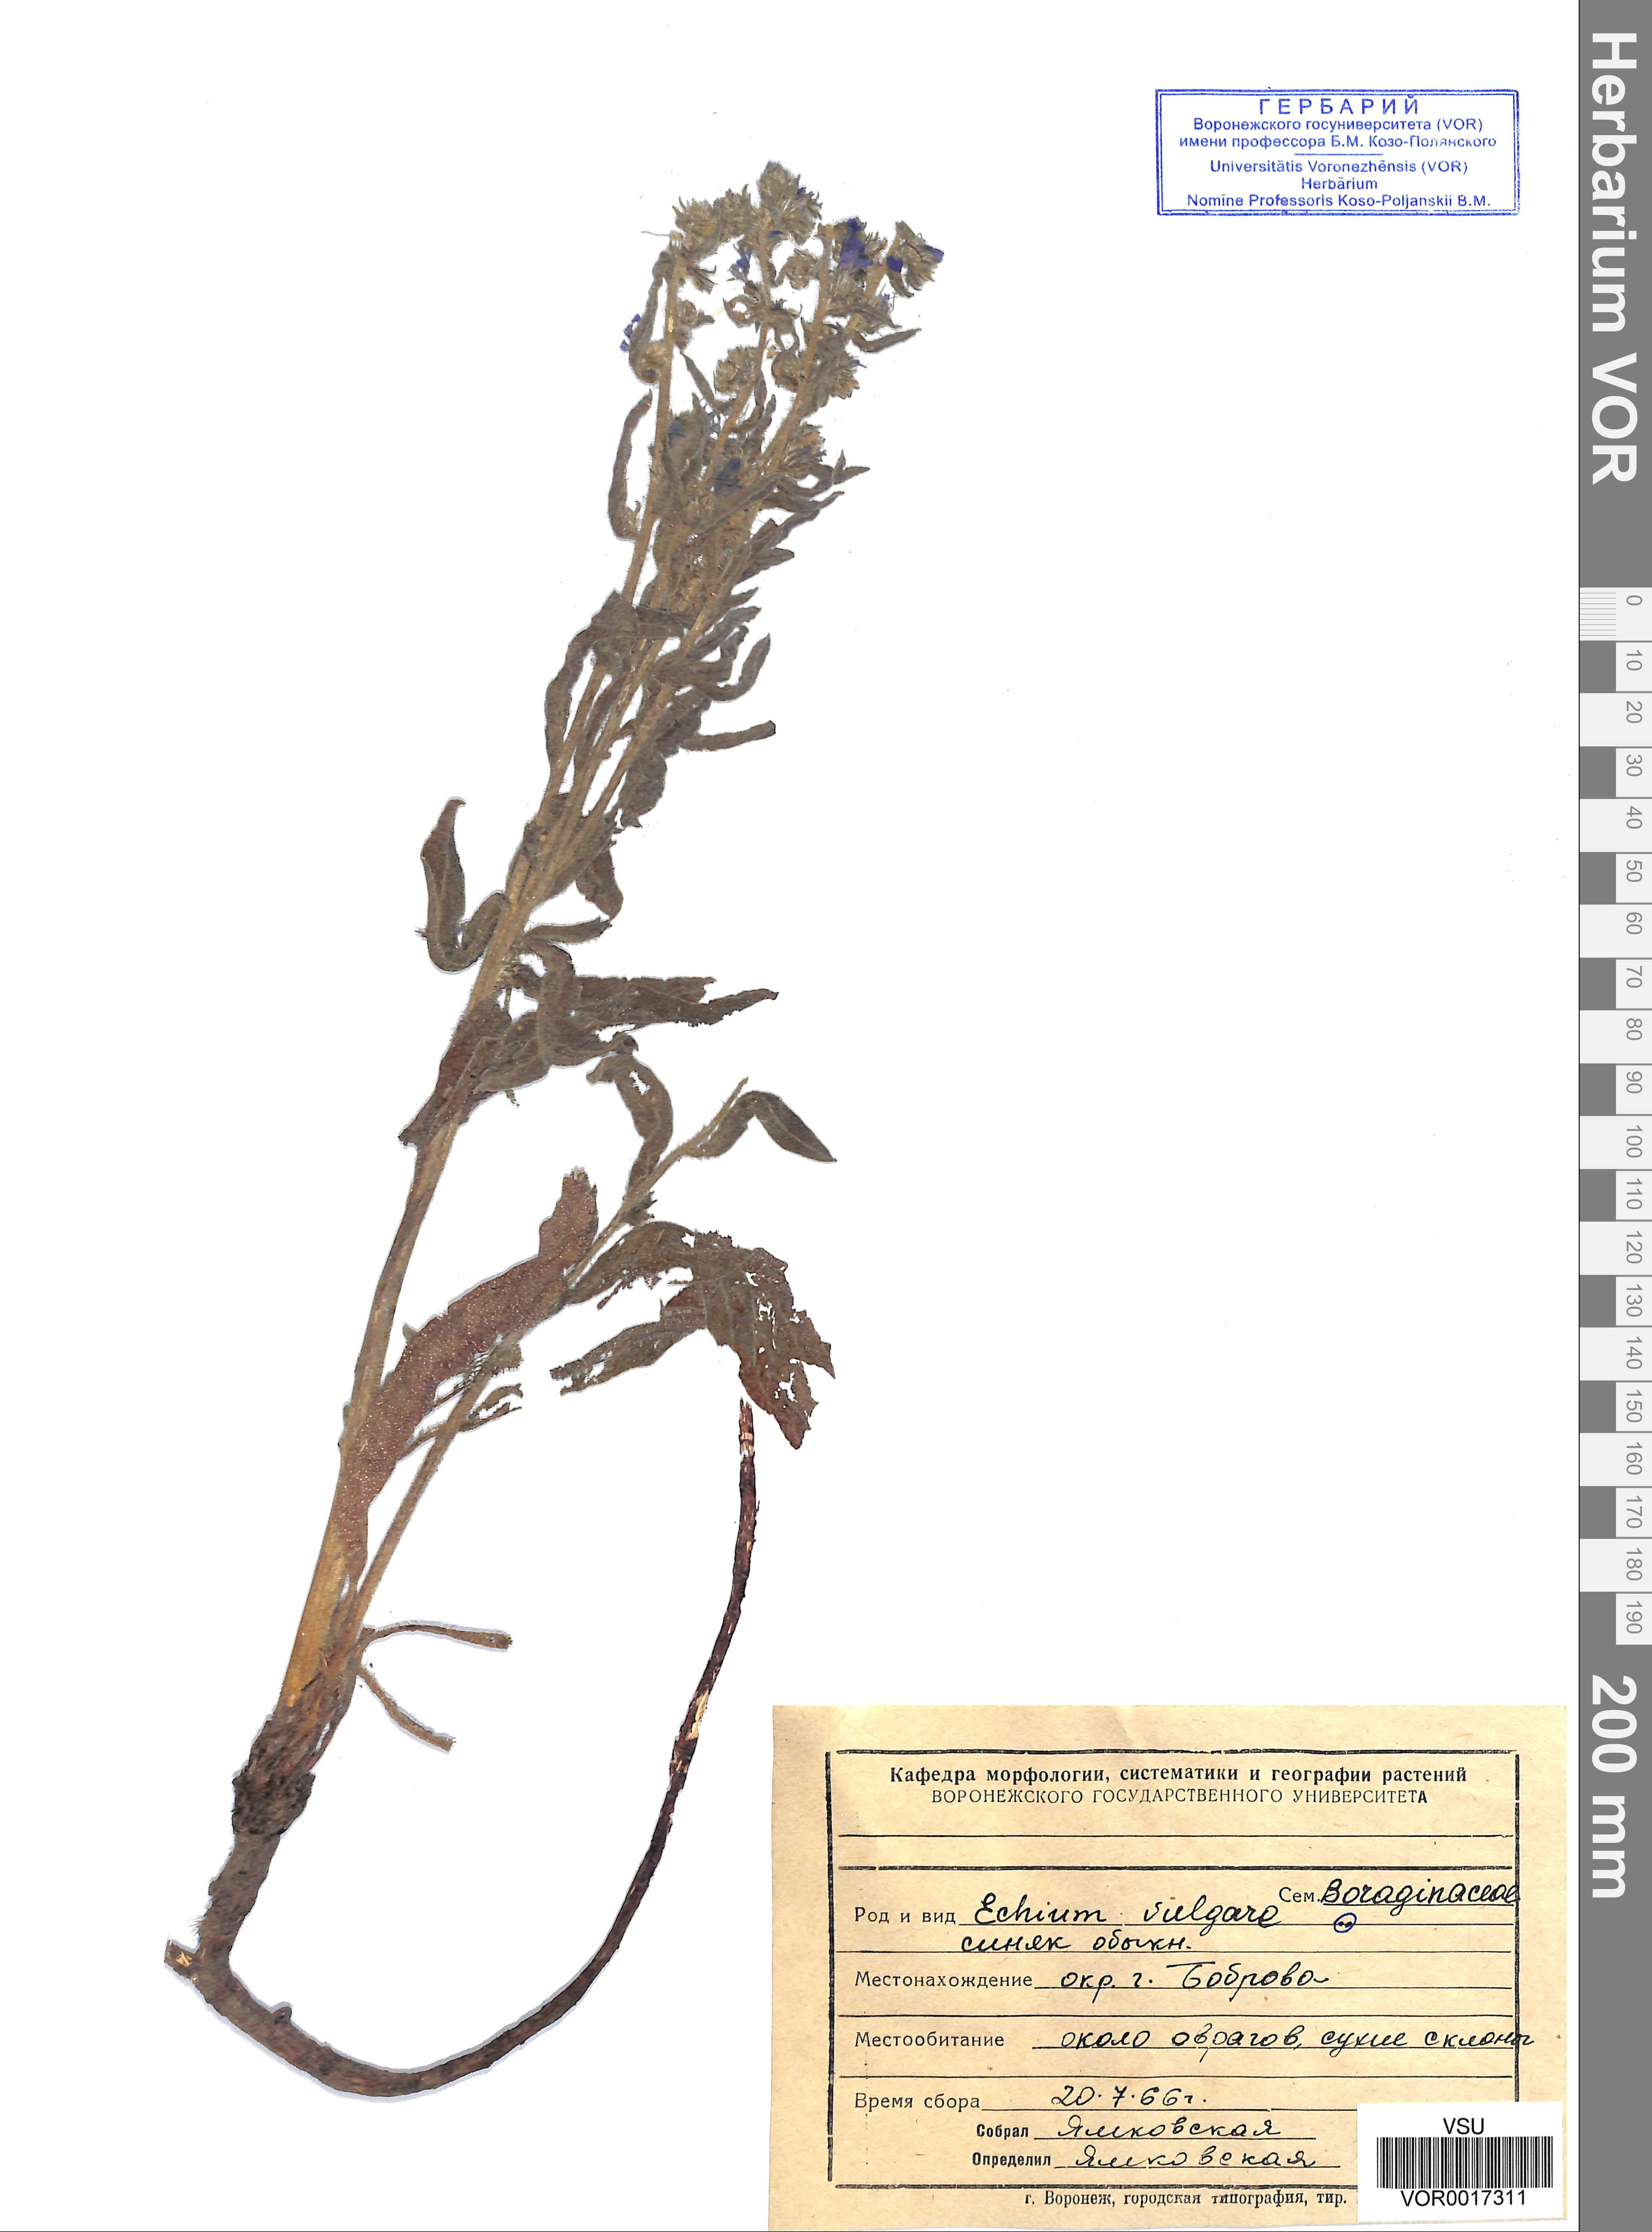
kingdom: Plantae
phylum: Tracheophyta
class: Magnoliopsida
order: Boraginales
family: Boraginaceae
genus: Echium
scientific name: Echium vulgare
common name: Common viper's bugloss
